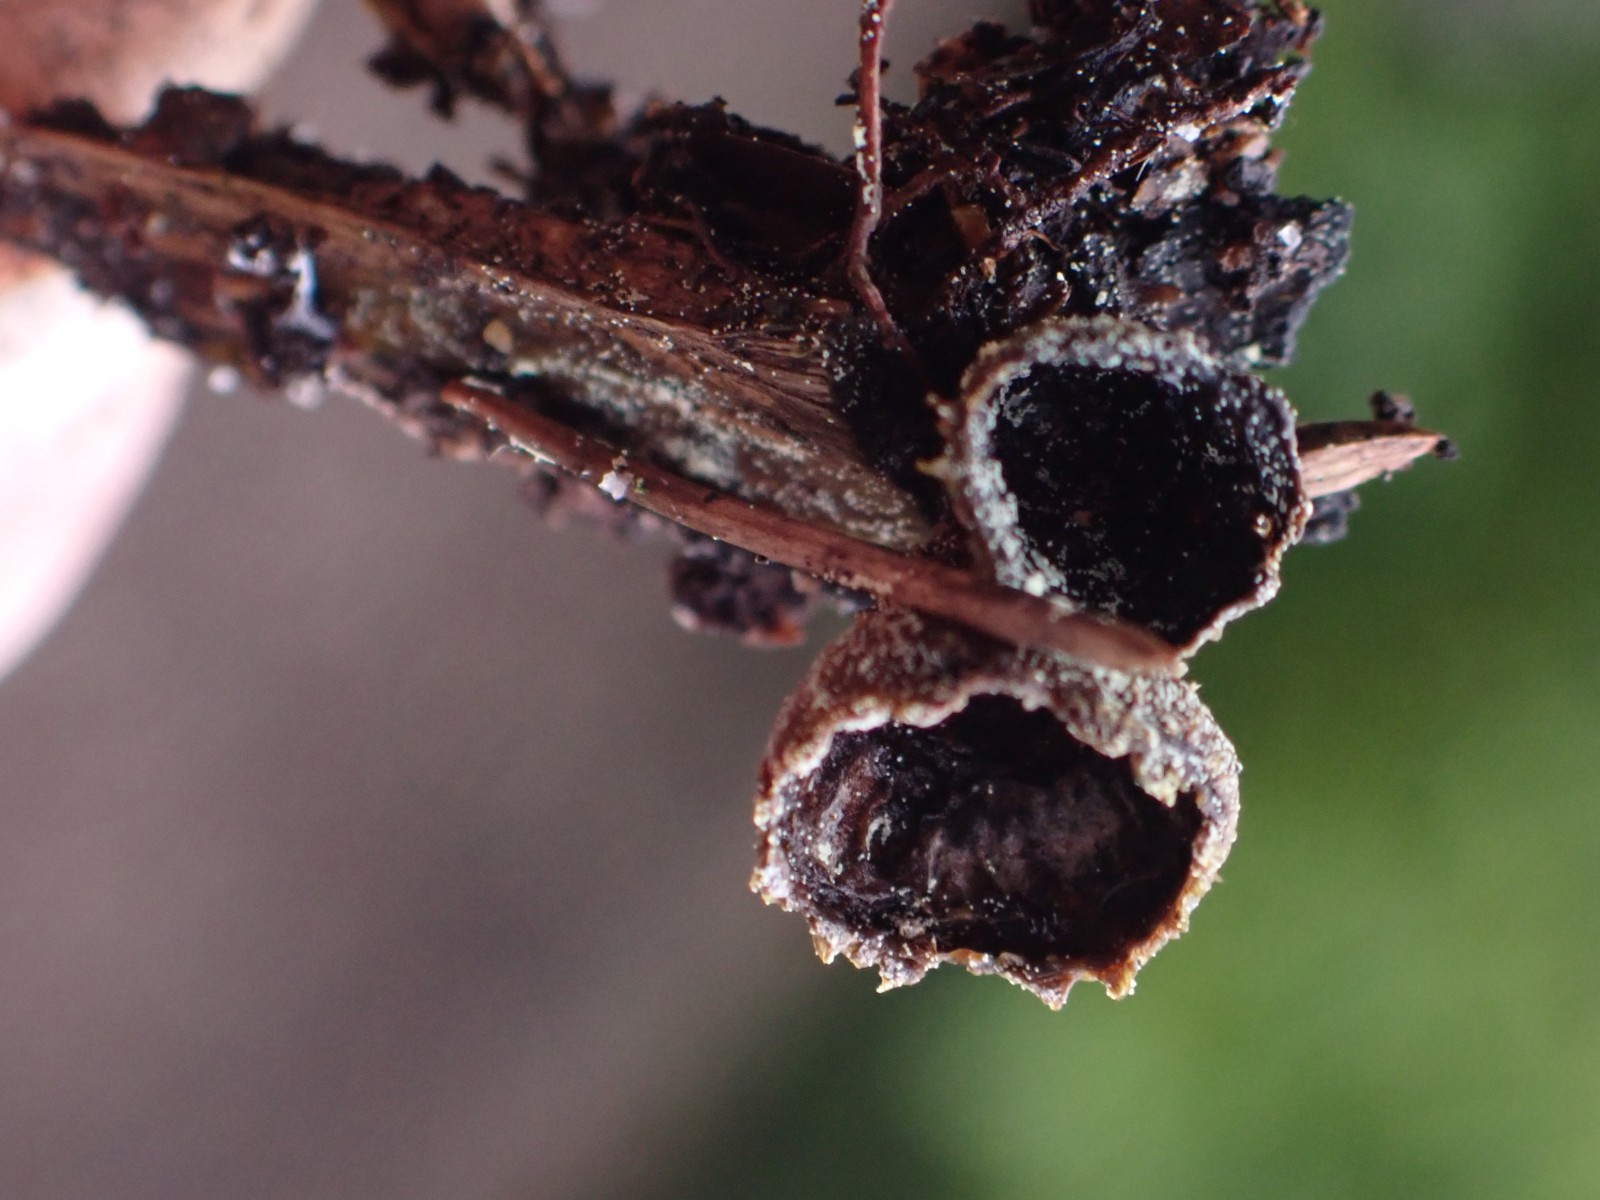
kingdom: Fungi
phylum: Basidiomycota
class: Agaricomycetes
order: Agaricales
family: Agaricaceae
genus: Cyathus
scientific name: Cyathus striatus
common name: stribet redesvamp
